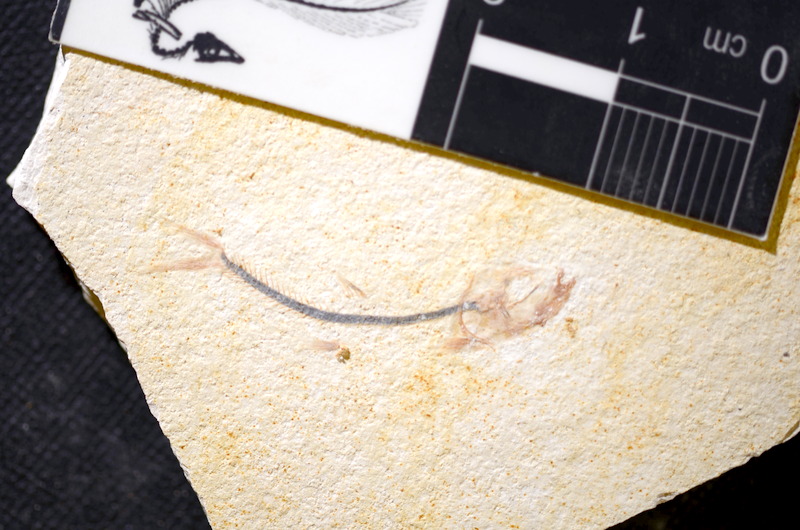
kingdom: Animalia
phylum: Chordata
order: Salmoniformes
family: Orthogonikleithridae
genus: Orthogonikleithrus
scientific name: Orthogonikleithrus hoelli
